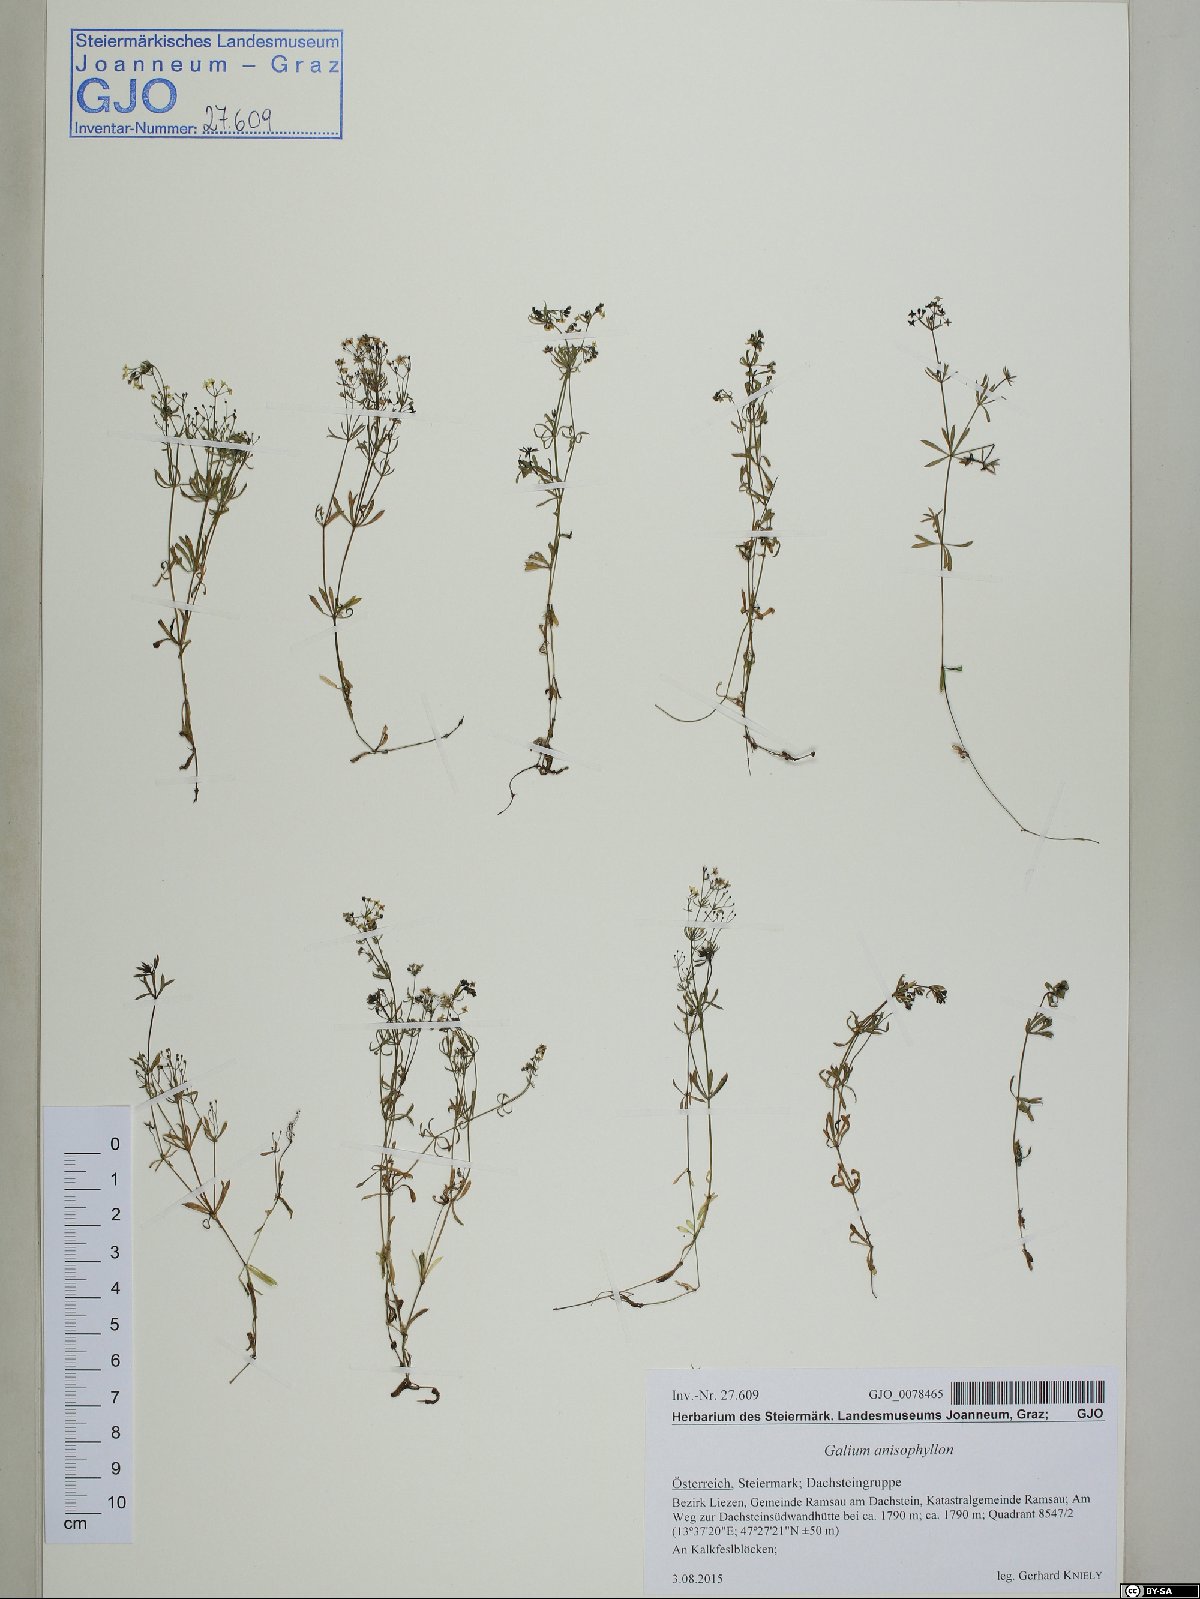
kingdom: Plantae
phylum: Tracheophyta
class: Magnoliopsida
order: Gentianales
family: Rubiaceae
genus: Galium
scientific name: Galium anisophyllon
